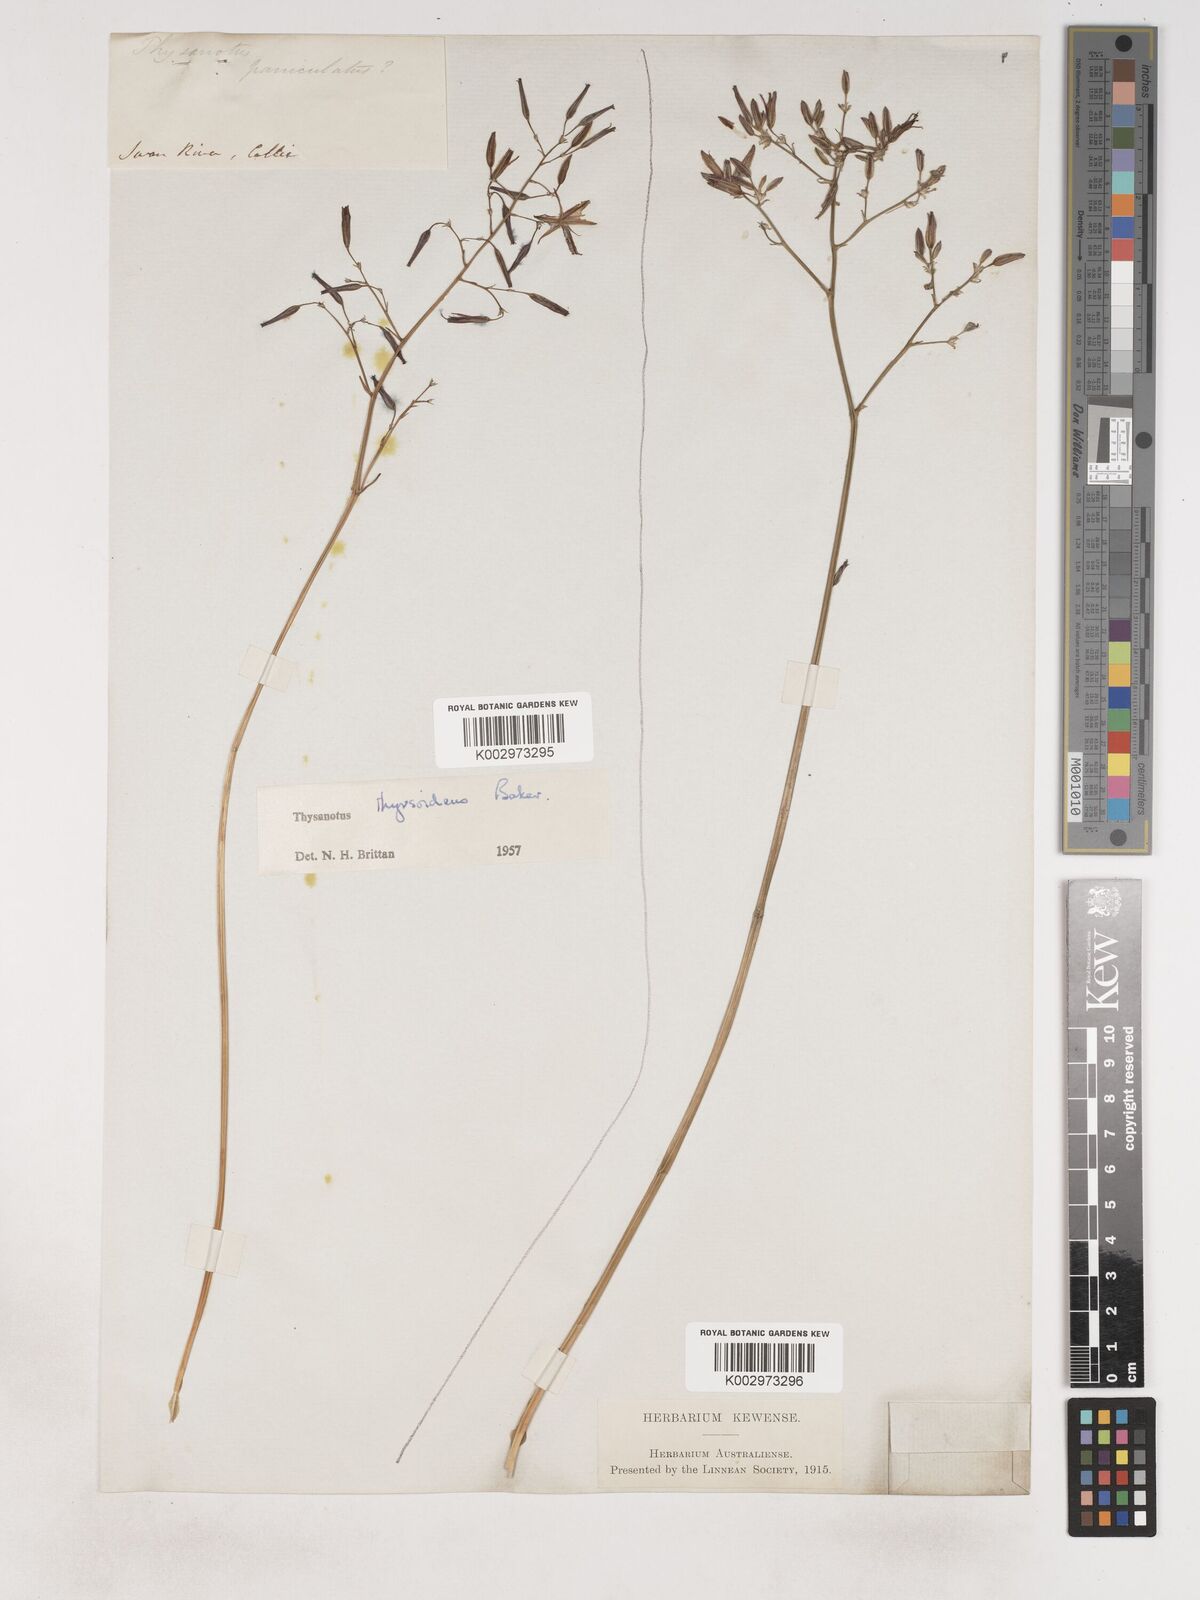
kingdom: Plantae
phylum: Tracheophyta
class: Liliopsida
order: Asparagales
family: Asparagaceae
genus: Thysanotus
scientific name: Thysanotus thyrsoideus
